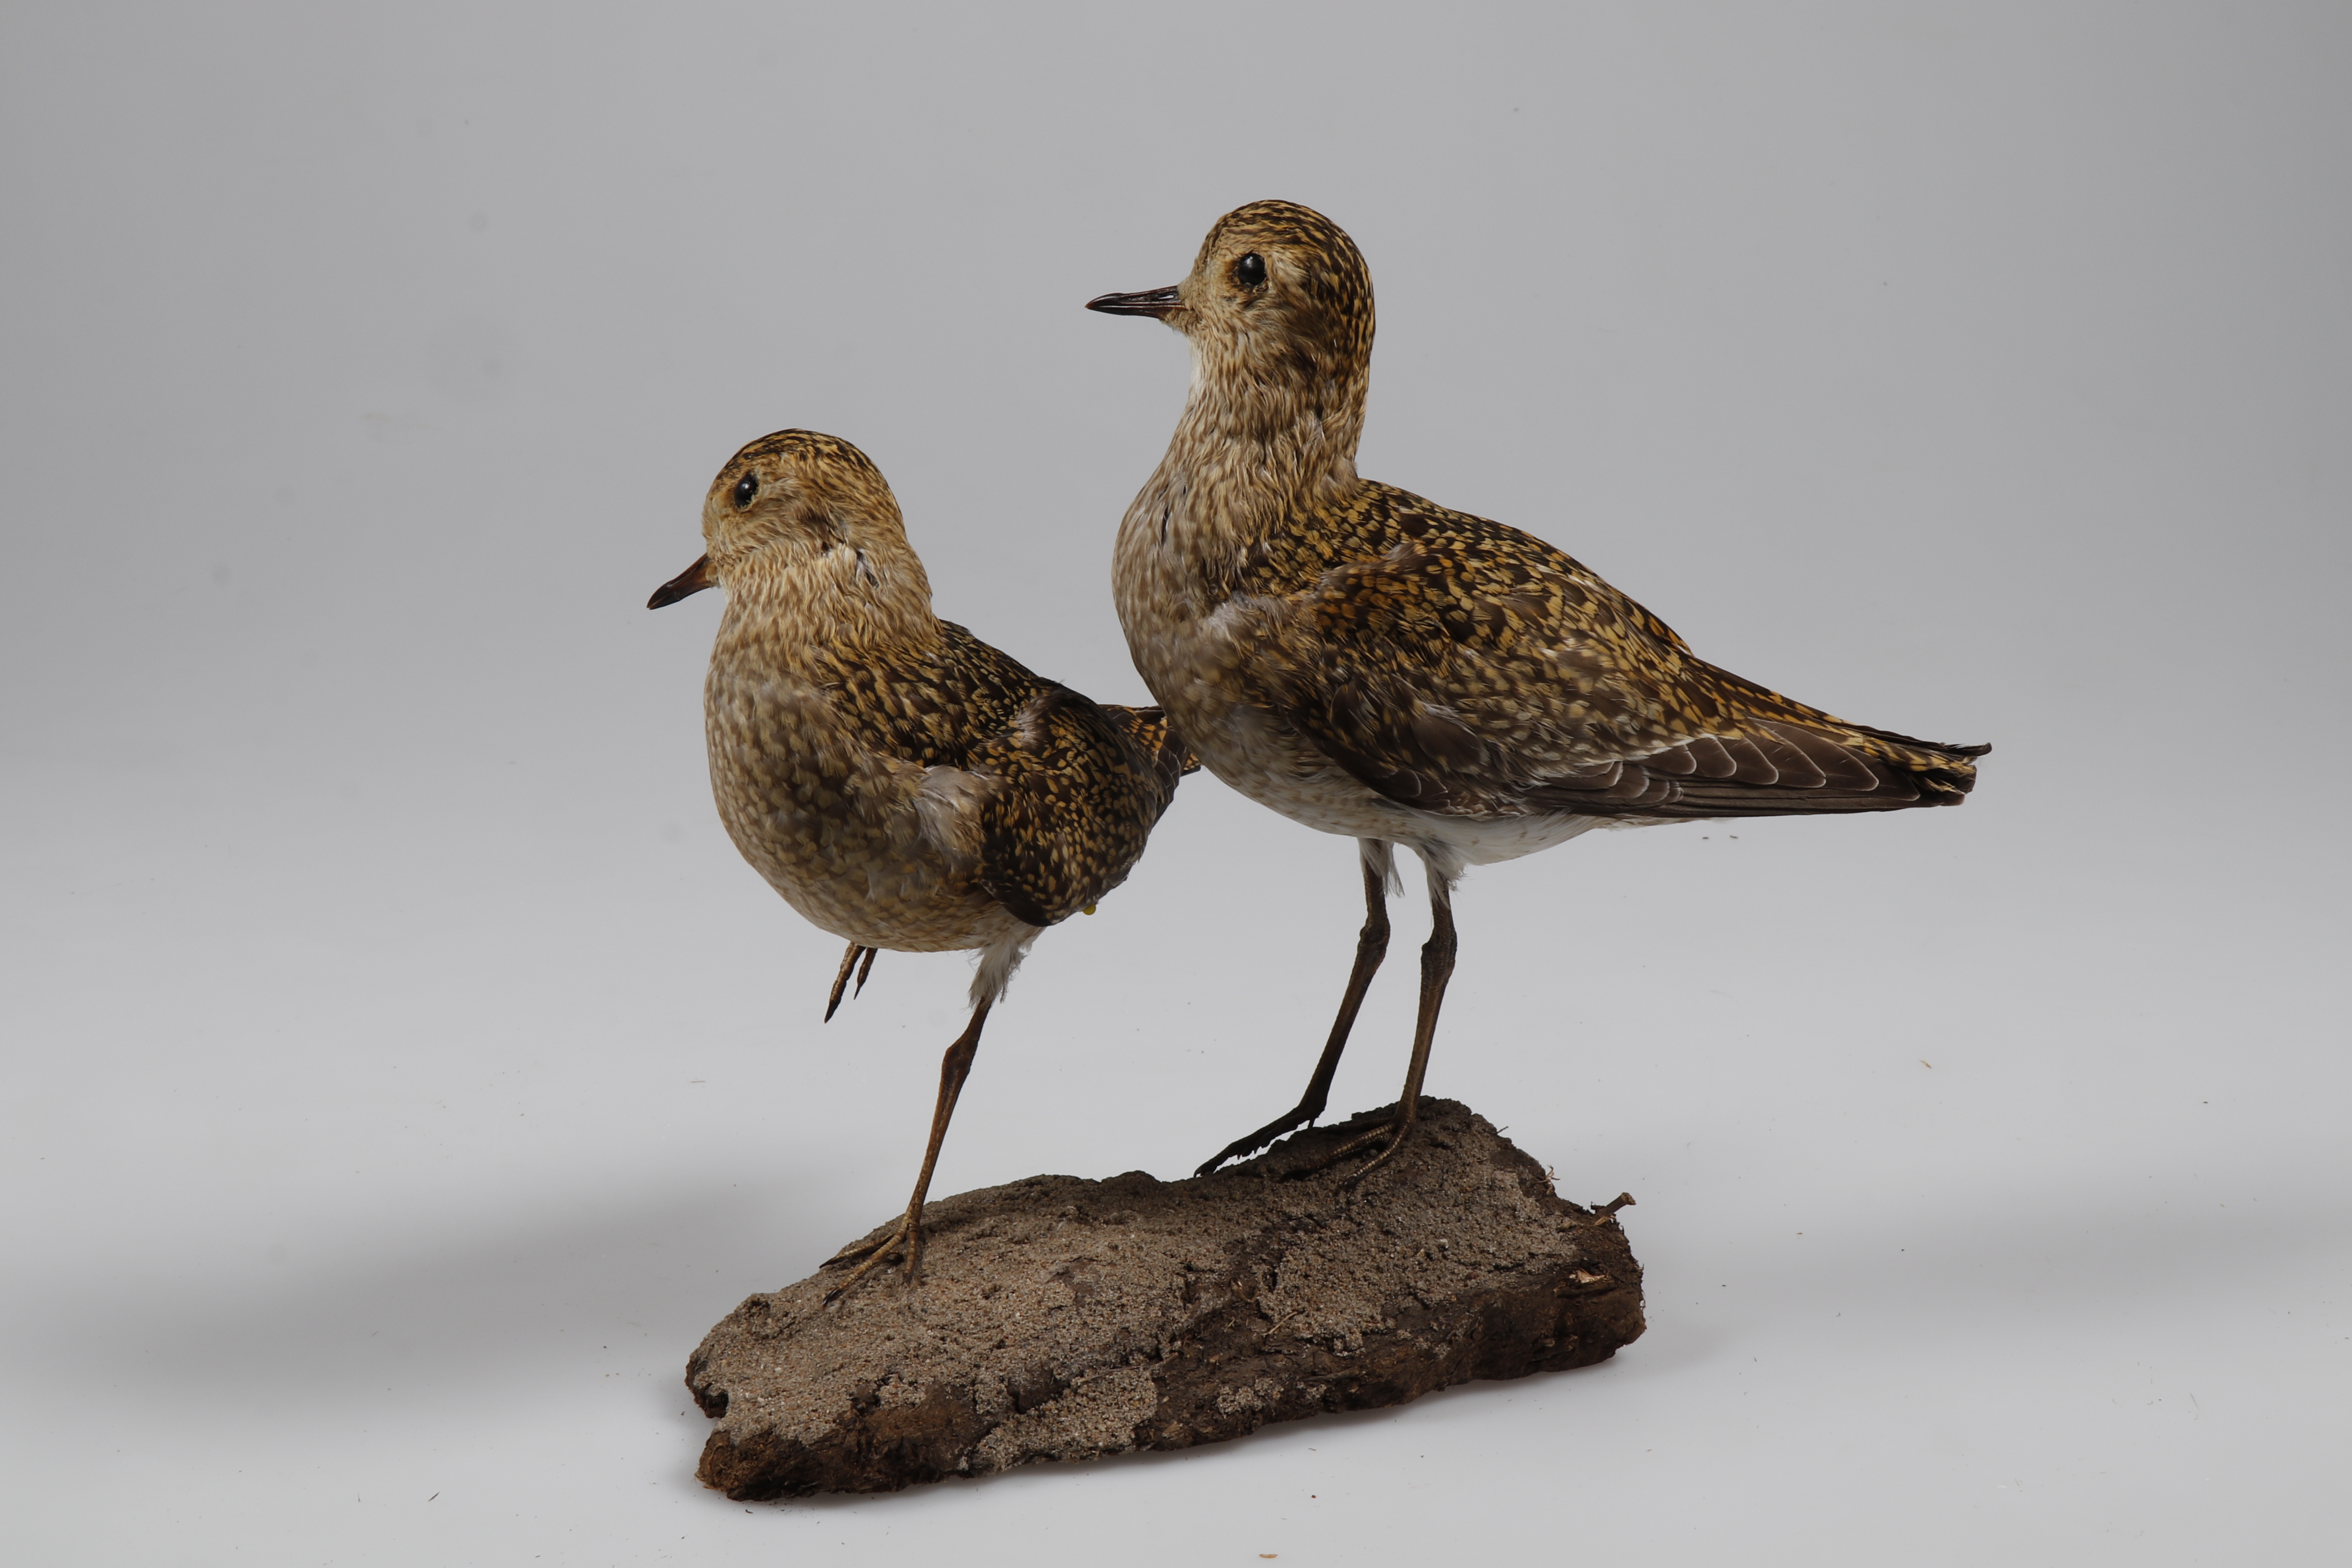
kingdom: Animalia
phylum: Chordata
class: Aves
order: Charadriiformes
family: Charadriidae
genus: Pluvialis
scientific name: Pluvialis apricaria
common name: European golden plover
